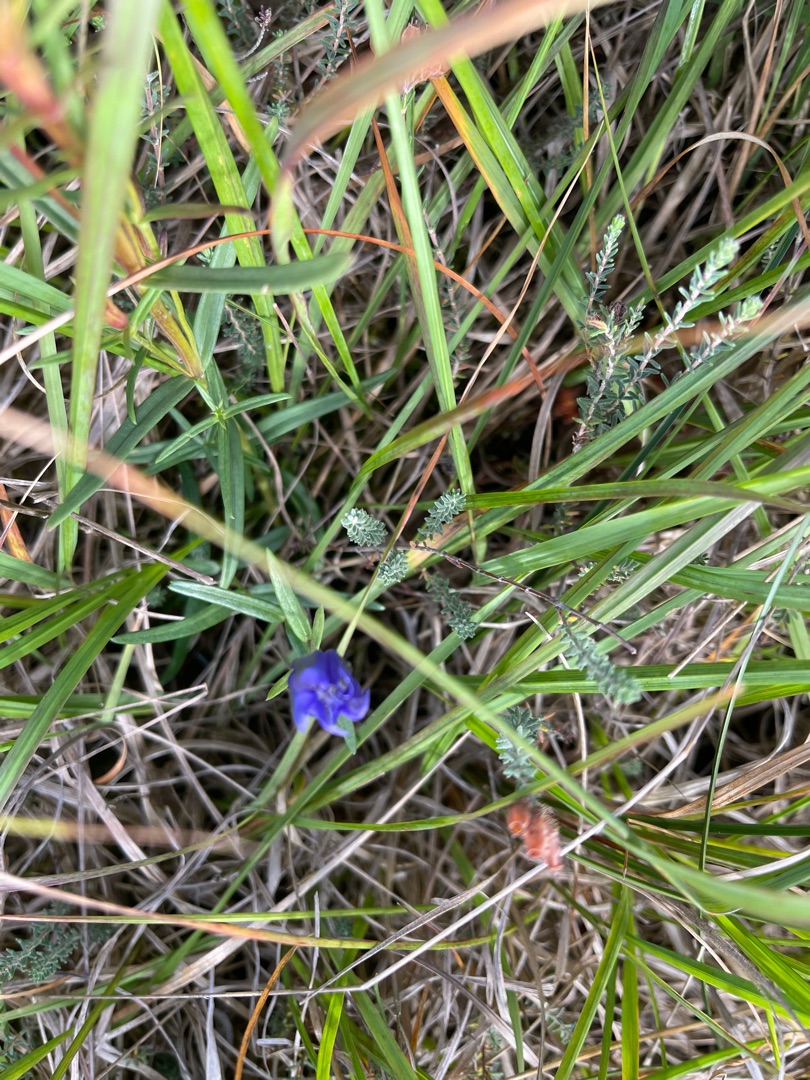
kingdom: Plantae
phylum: Tracheophyta
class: Magnoliopsida
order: Gentianales
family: Gentianaceae
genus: Gentiana
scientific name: Gentiana pneumonanthe
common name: Klokke-ensian
